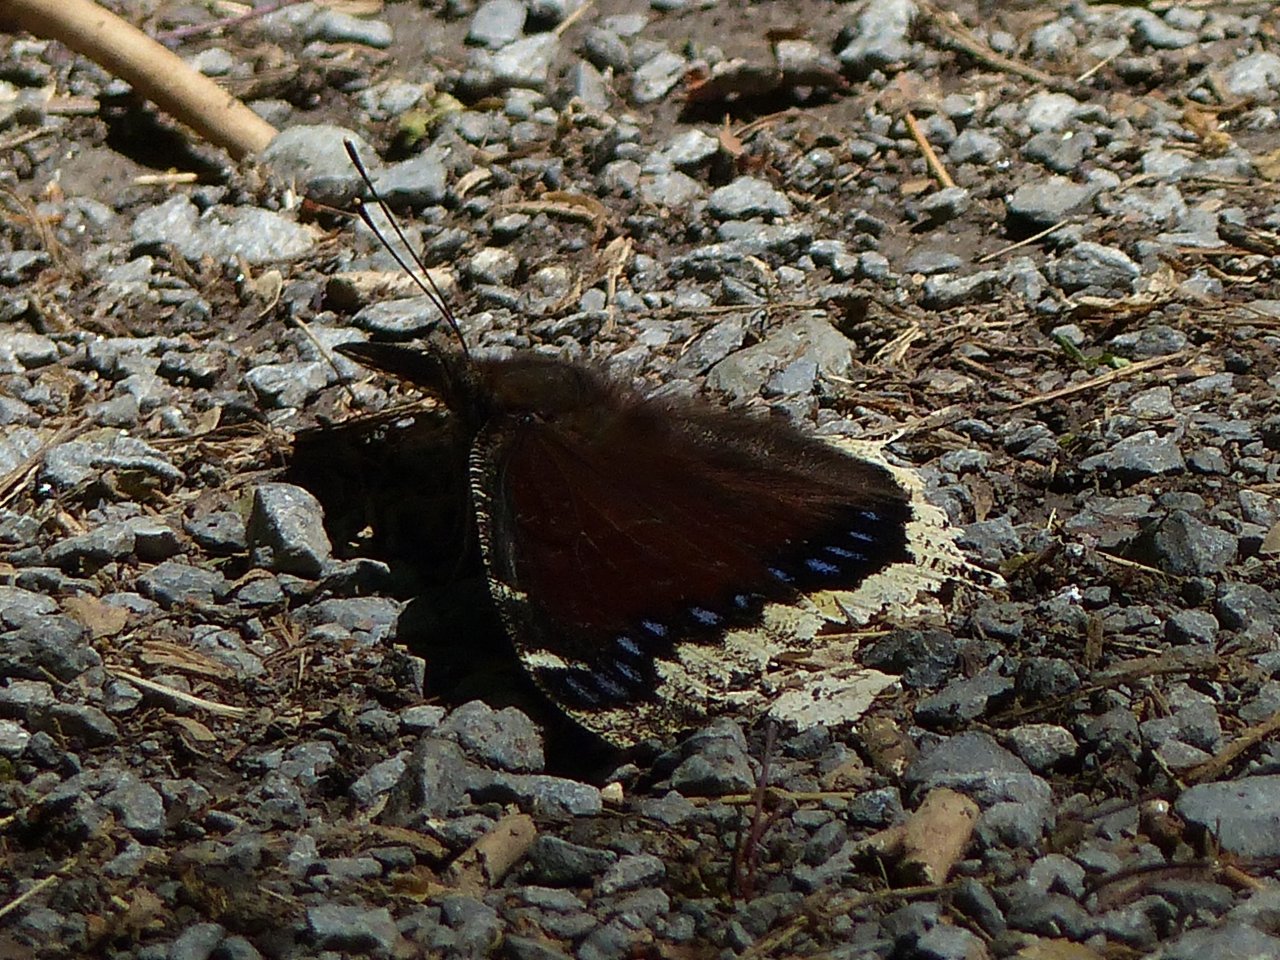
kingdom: Animalia
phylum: Arthropoda
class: Insecta
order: Lepidoptera
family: Nymphalidae
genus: Nymphalis
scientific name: Nymphalis antiopa
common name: Mourning Cloak
